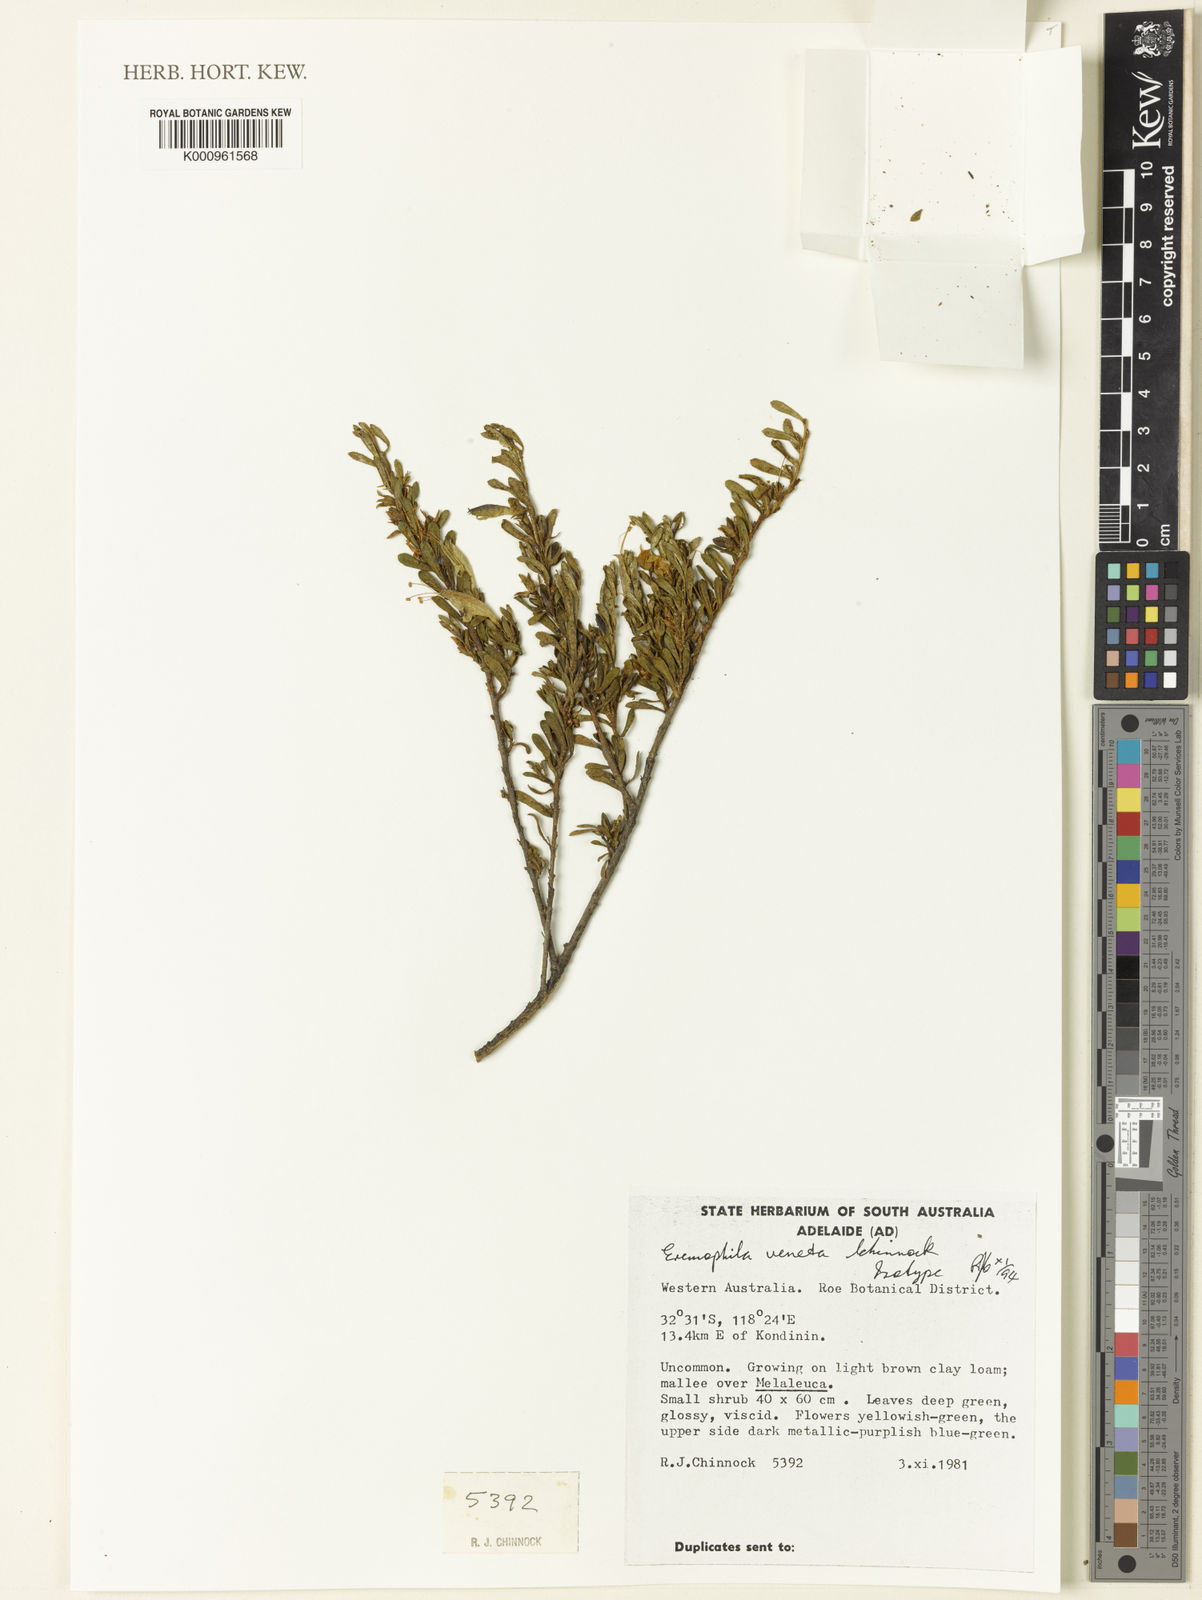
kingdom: Plantae
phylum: Tracheophyta
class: Magnoliopsida
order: Lamiales
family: Scrophulariaceae
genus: Eremophila
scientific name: Eremophila veneta
